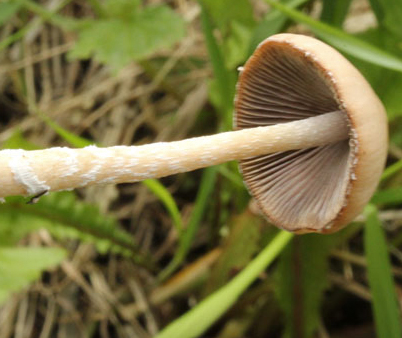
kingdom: Fungi
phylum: Basidiomycota
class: Agaricomycetes
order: Agaricales
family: Psathyrellaceae
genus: Coprinopsis
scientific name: Coprinopsis marcescibilis
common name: ruderat-blækhat
